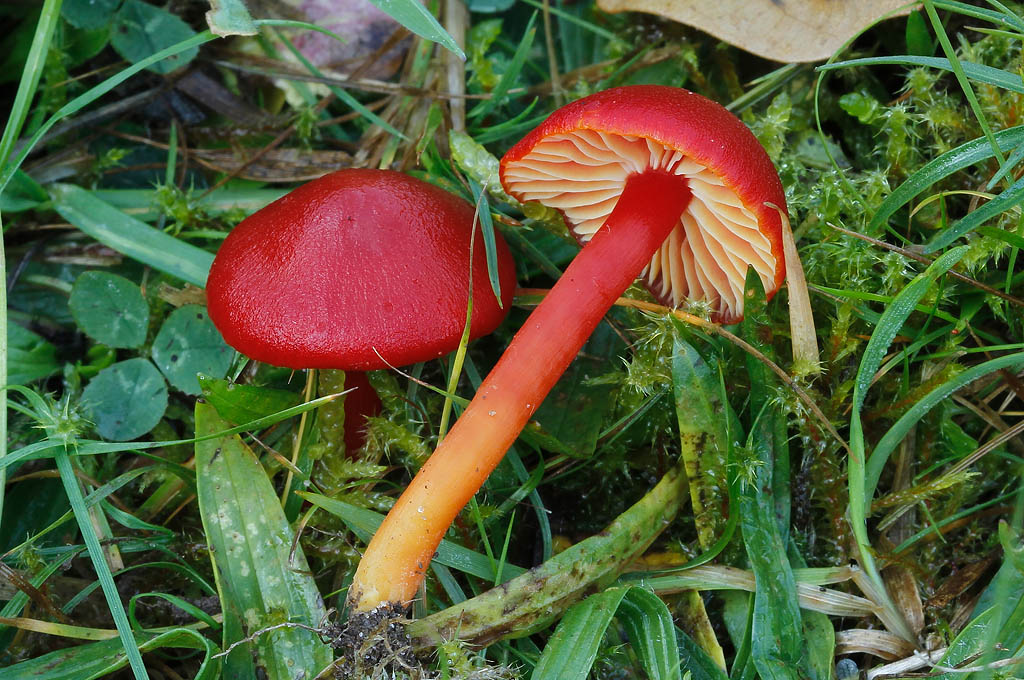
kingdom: Fungi
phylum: Basidiomycota
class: Agaricomycetes
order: Agaricales
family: Hygrophoraceae
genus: Hygrocybe
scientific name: Hygrocybe coccinea
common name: cinnober-vokshat
